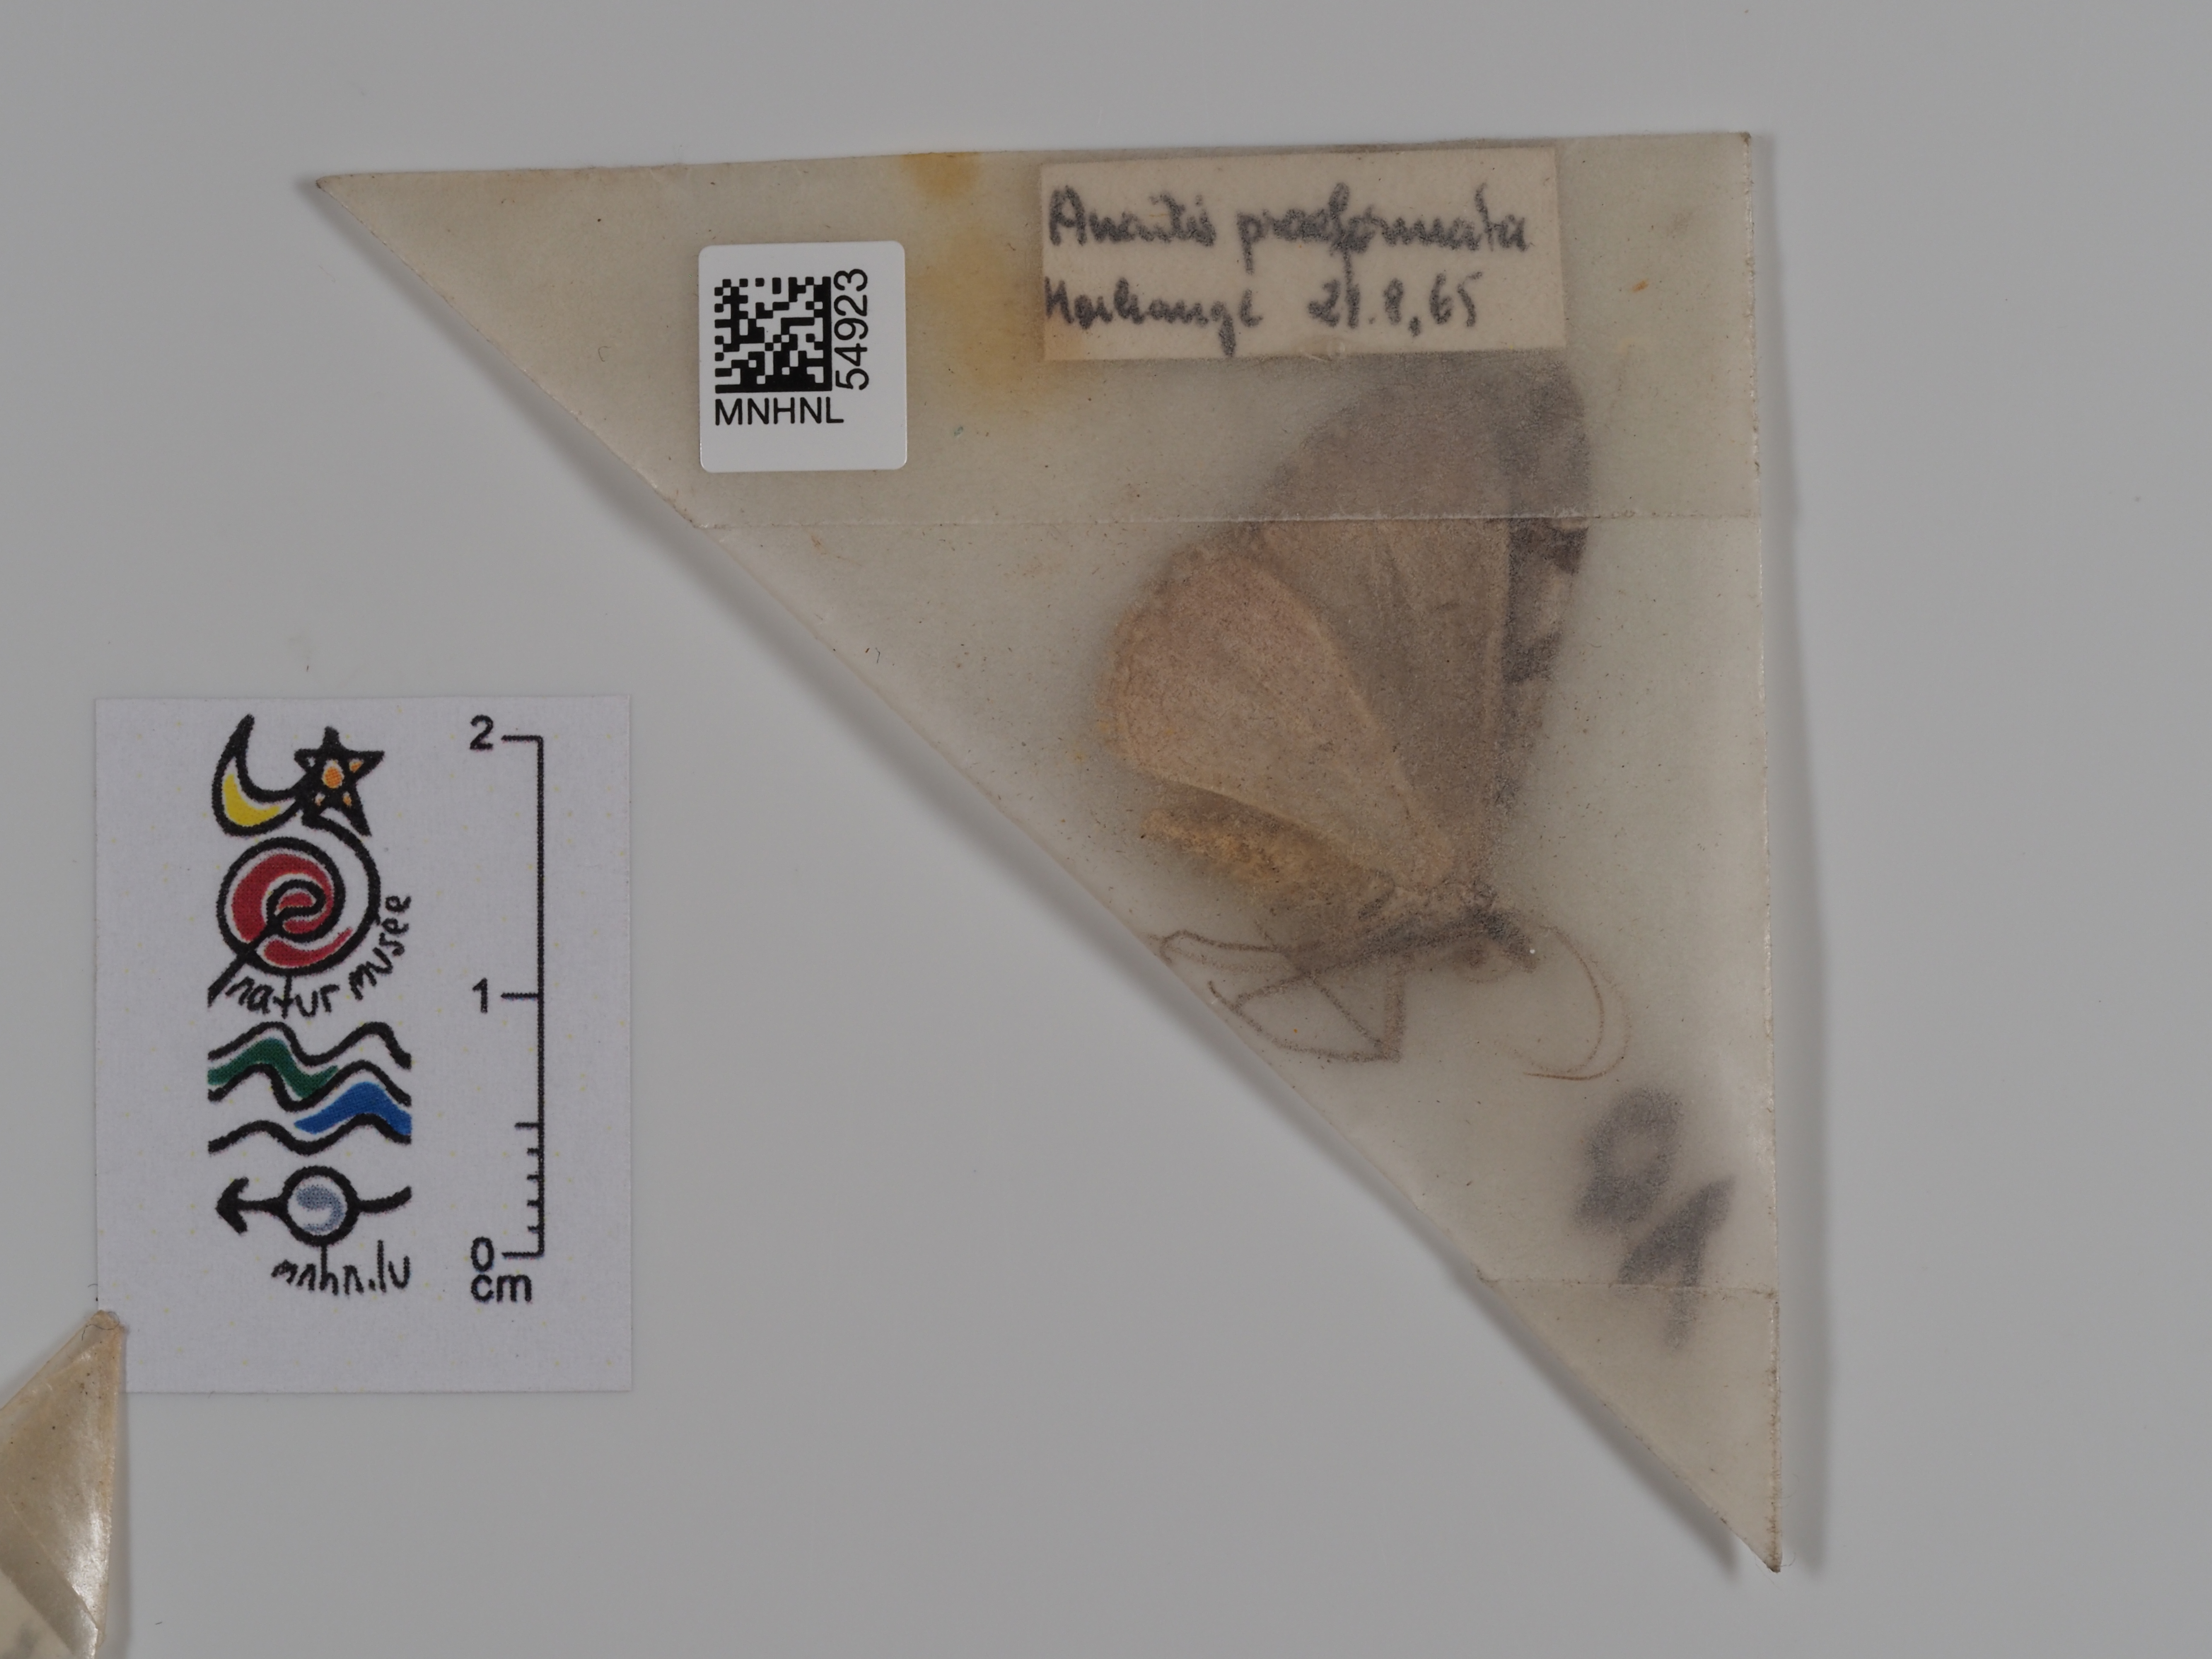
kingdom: Animalia
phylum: Arthropoda
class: Insecta
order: Lepidoptera
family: Geometridae
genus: Aplocera
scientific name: Aplocera praeformata
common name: Purple treble-bar
